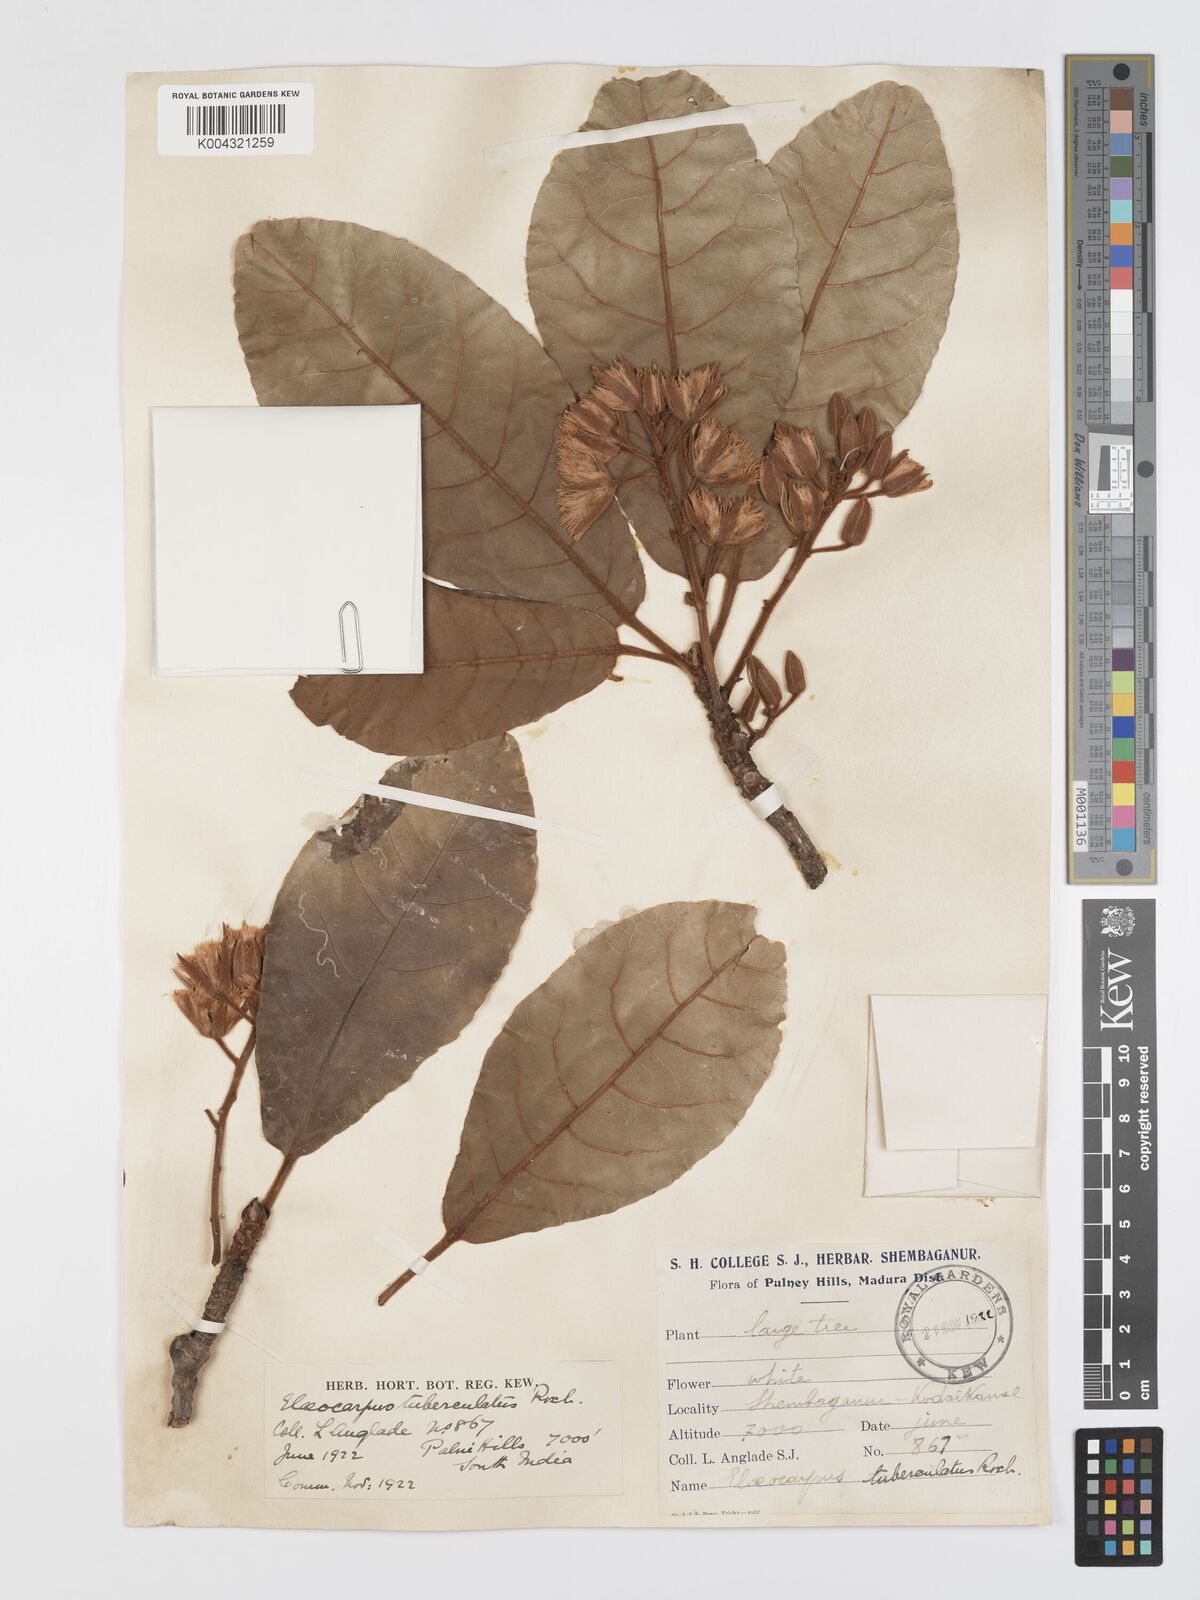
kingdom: Plantae
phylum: Tracheophyta
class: Magnoliopsida
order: Oxalidales
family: Elaeocarpaceae
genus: Elaeocarpus
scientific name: Elaeocarpus tuberculatus
